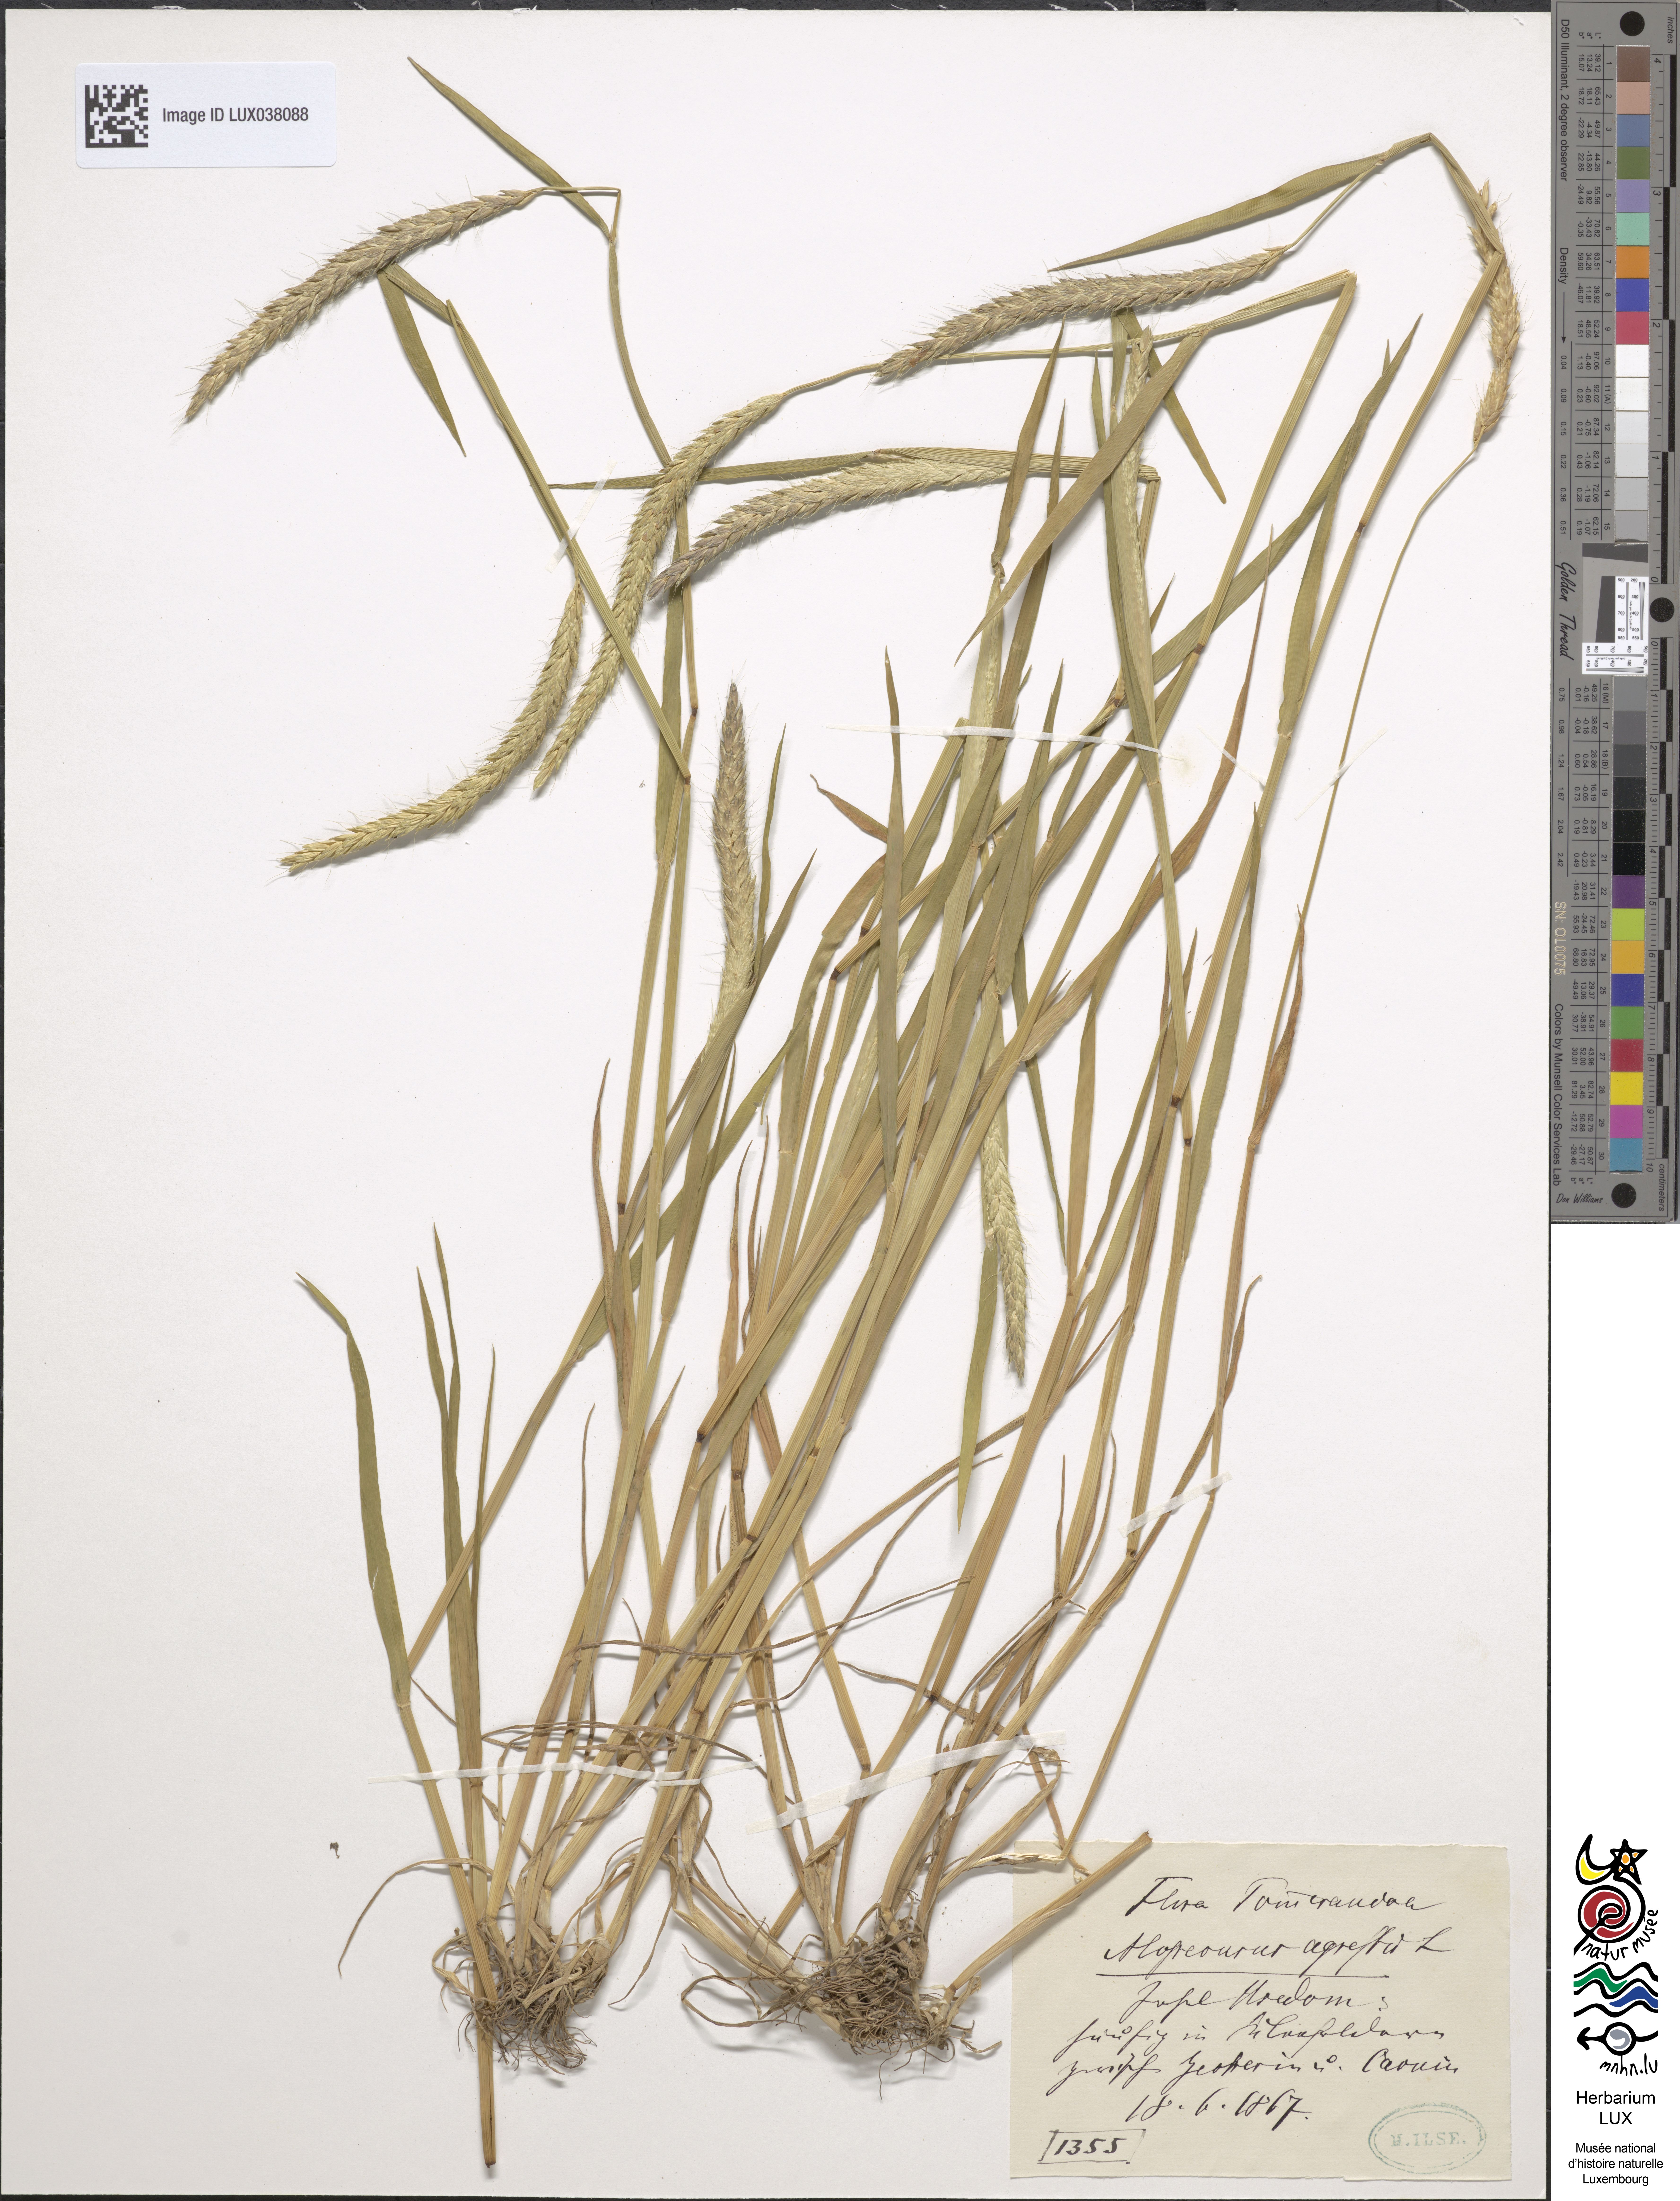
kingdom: Plantae
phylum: Tracheophyta
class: Liliopsida
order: Poales
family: Poaceae
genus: Alopecurus
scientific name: Alopecurus myosuroides
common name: Black-grass
